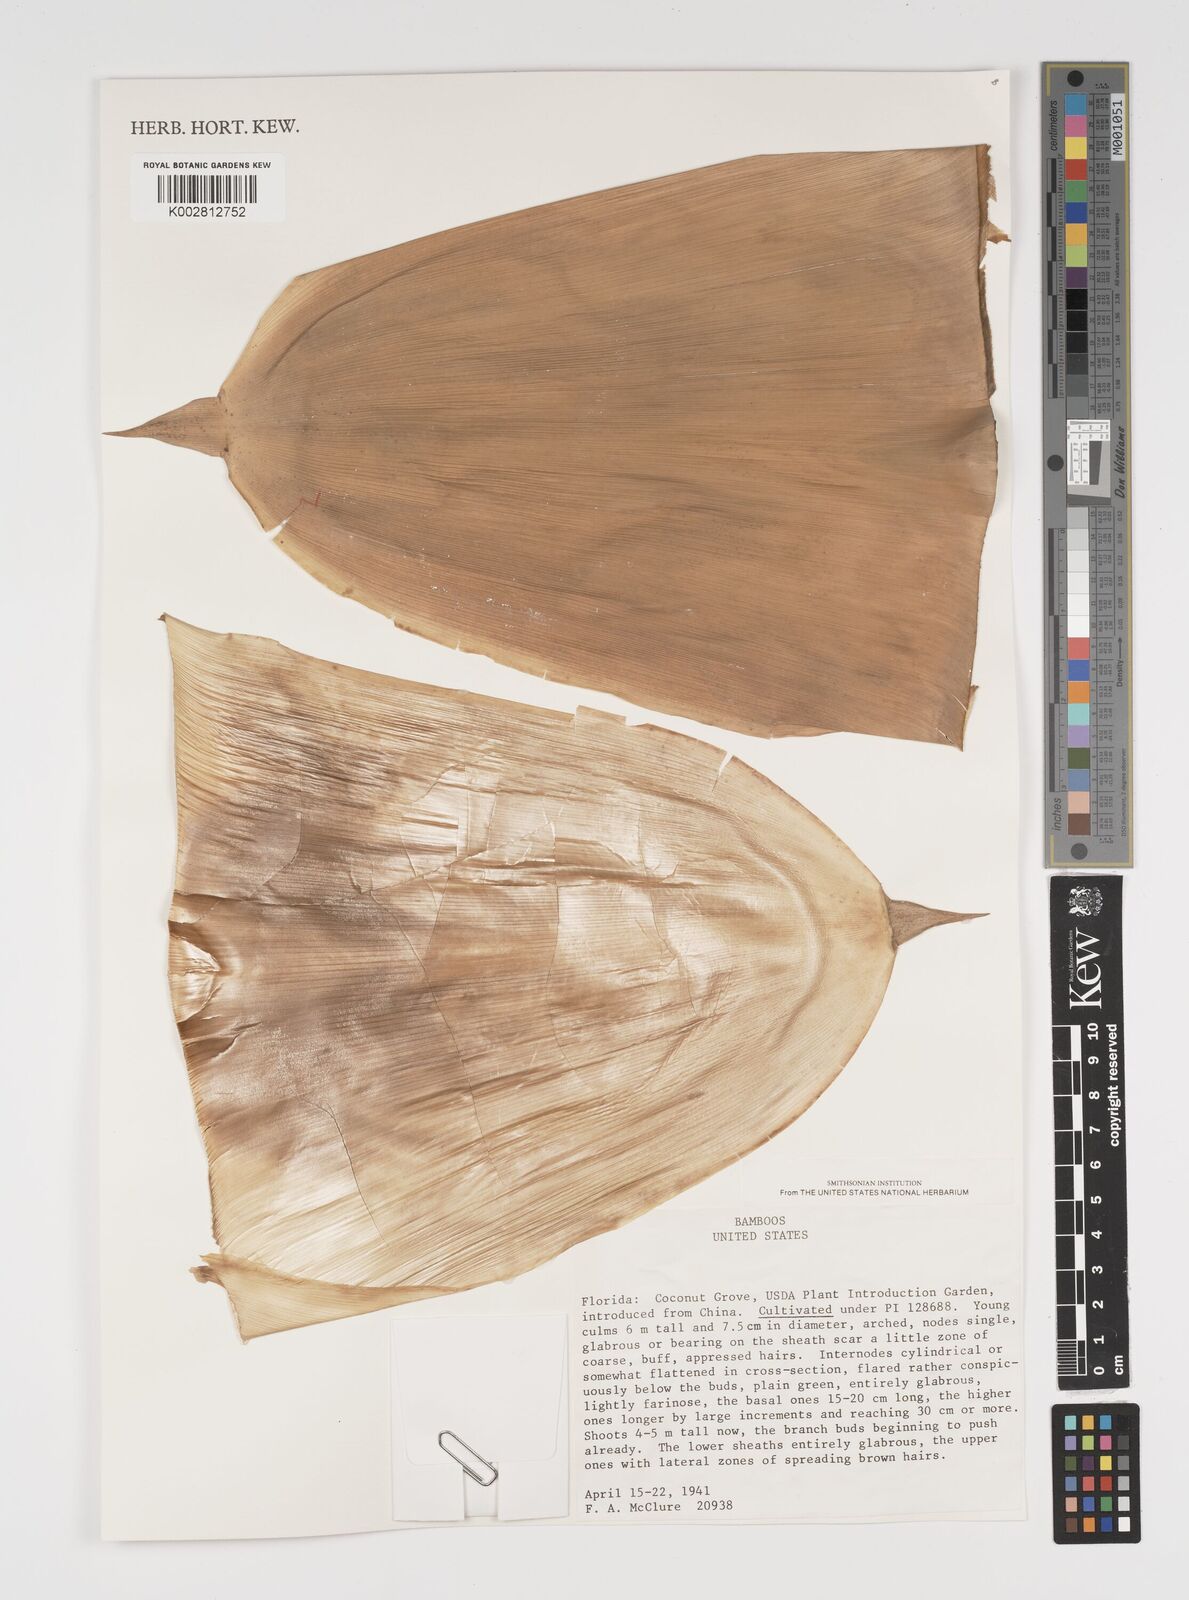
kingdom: Plantae
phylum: Tracheophyta
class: Liliopsida
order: Poales
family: Poaceae
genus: Arundinaria
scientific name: Arundinaria
